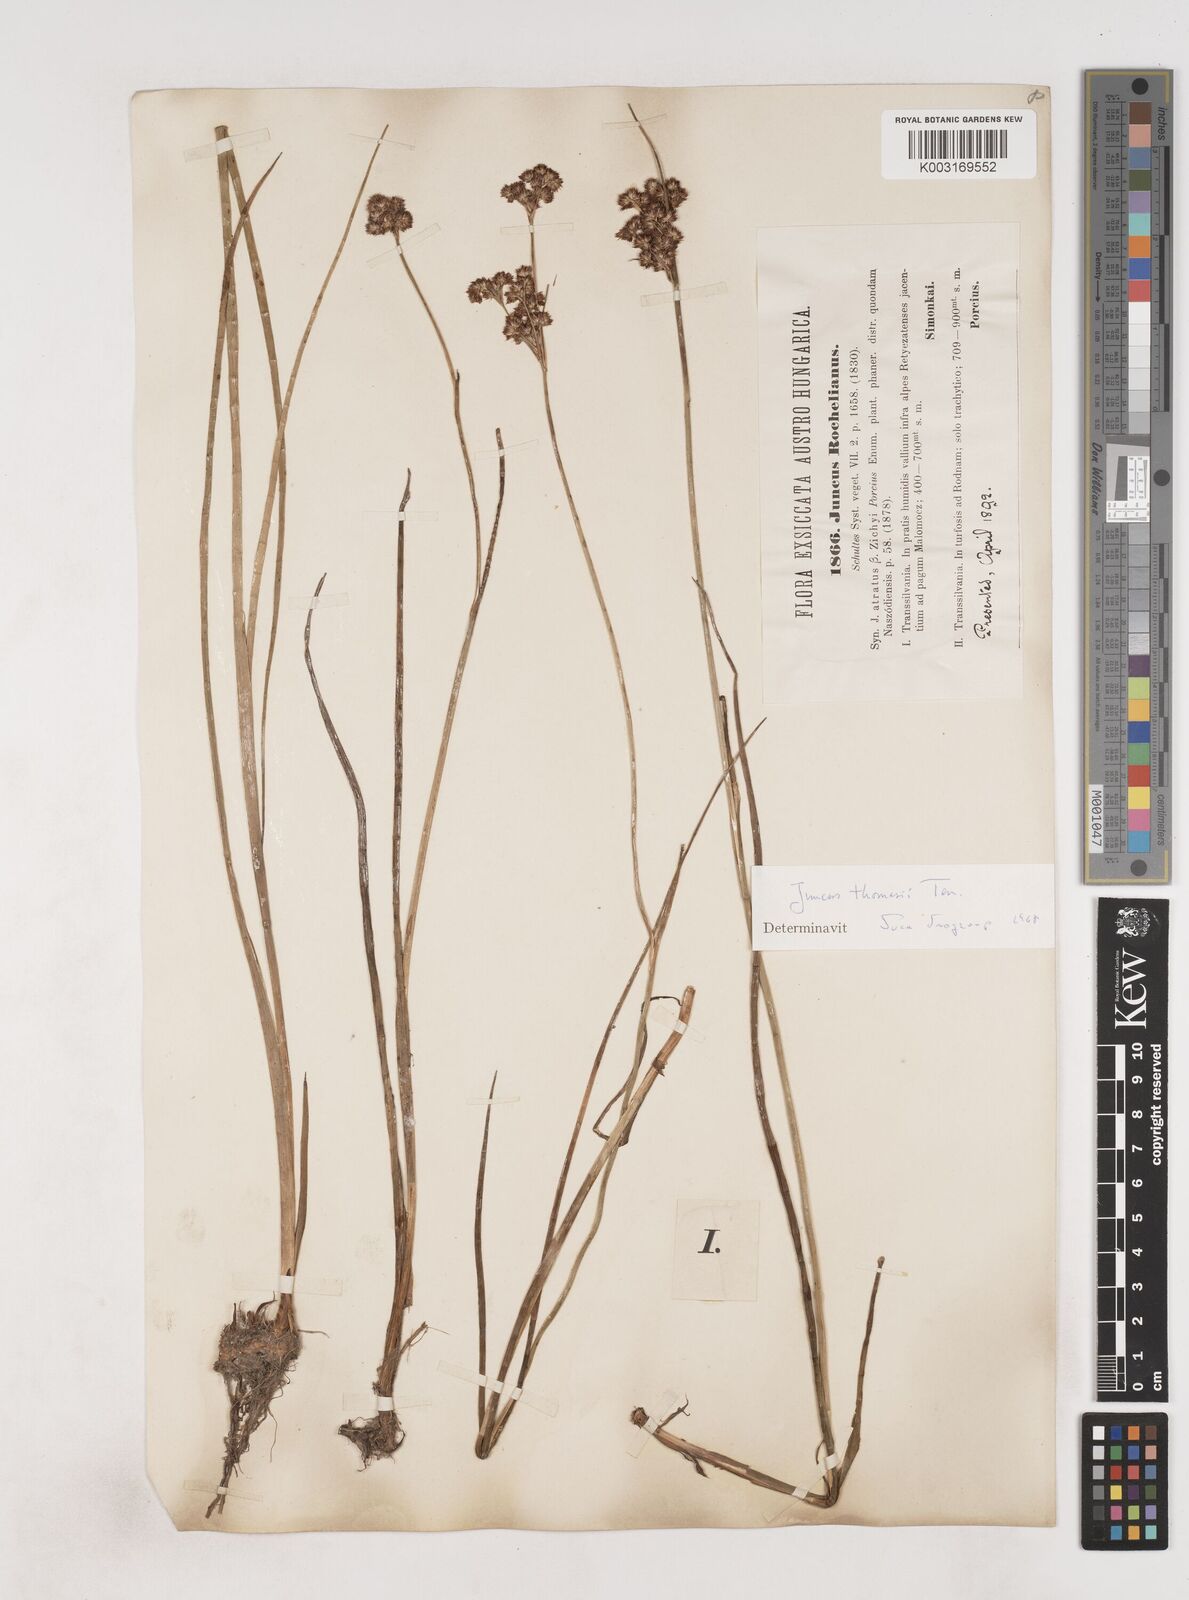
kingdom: Plantae
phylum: Tracheophyta
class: Liliopsida
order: Poales
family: Juncaceae
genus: Juncus
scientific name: Juncus thomasii
